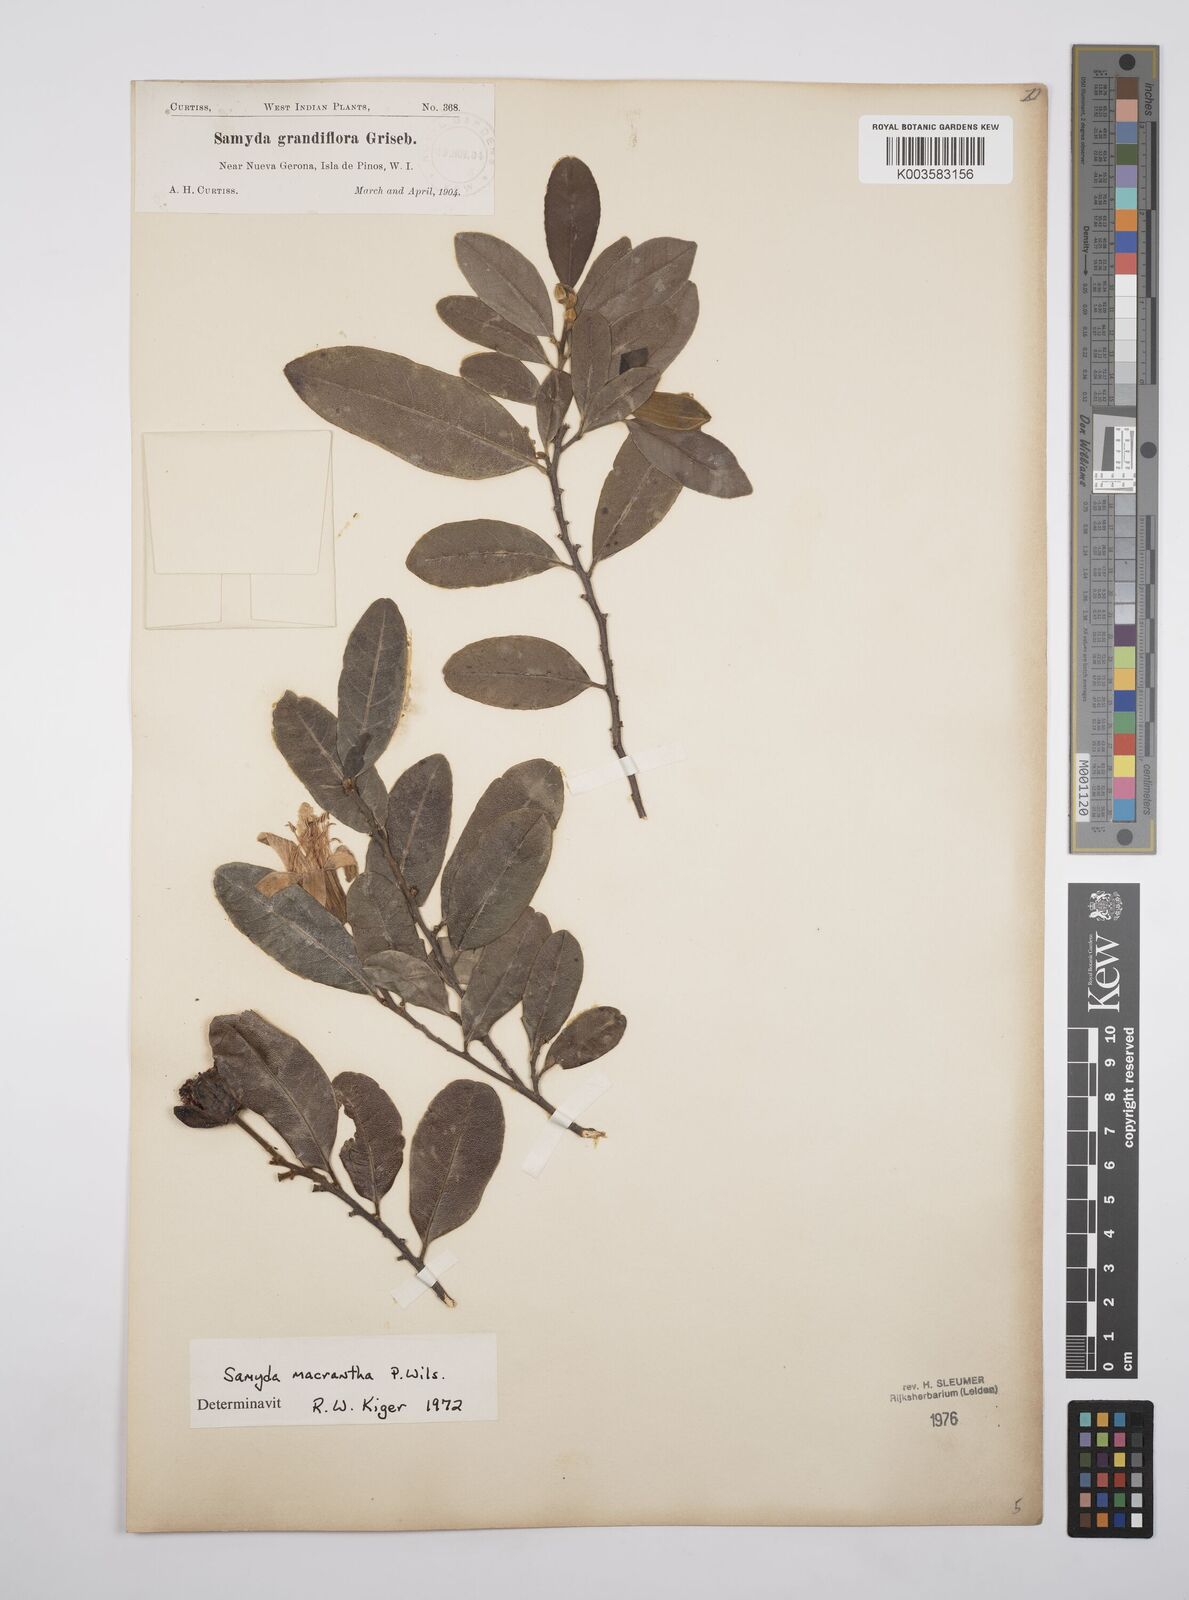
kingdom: Plantae
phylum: Tracheophyta
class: Magnoliopsida
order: Malpighiales
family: Salicaceae
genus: Casearia
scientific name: Casearia dolichanthera
